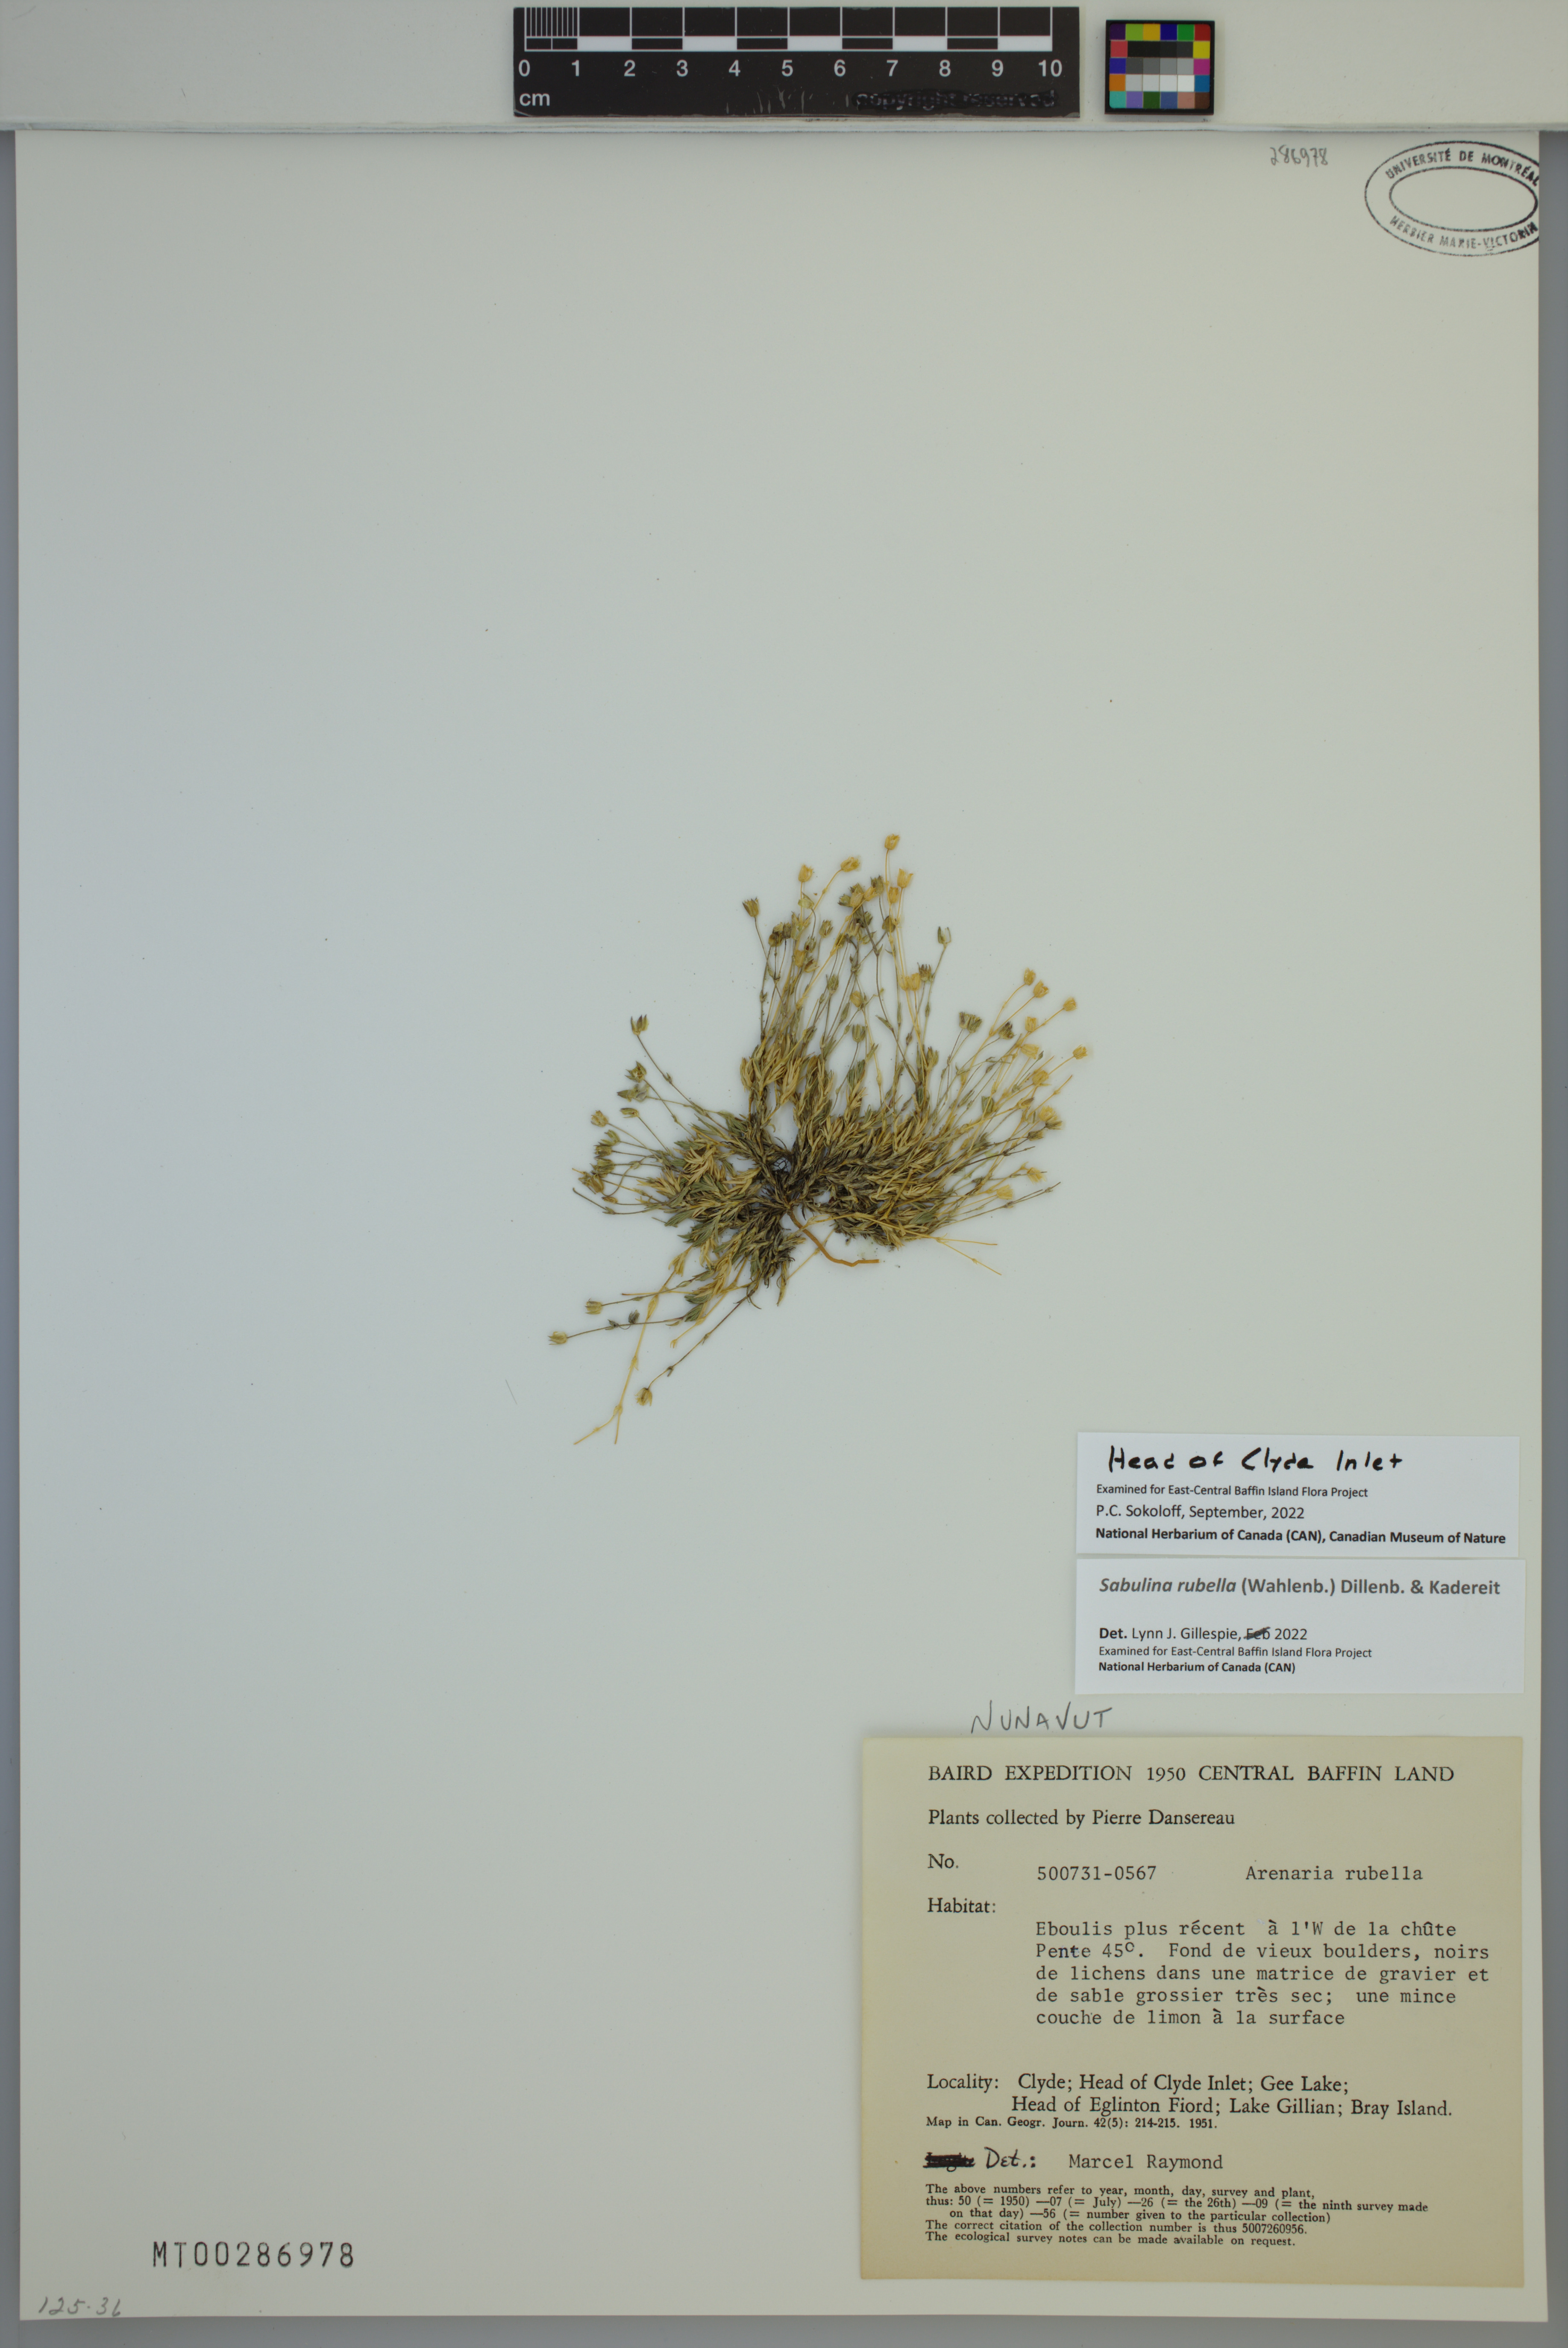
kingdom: Plantae
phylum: Tracheophyta
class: Magnoliopsida
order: Caryophyllales
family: Caryophyllaceae
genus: Sabulina
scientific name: Sabulina rubella
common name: Beautiful sandwort
